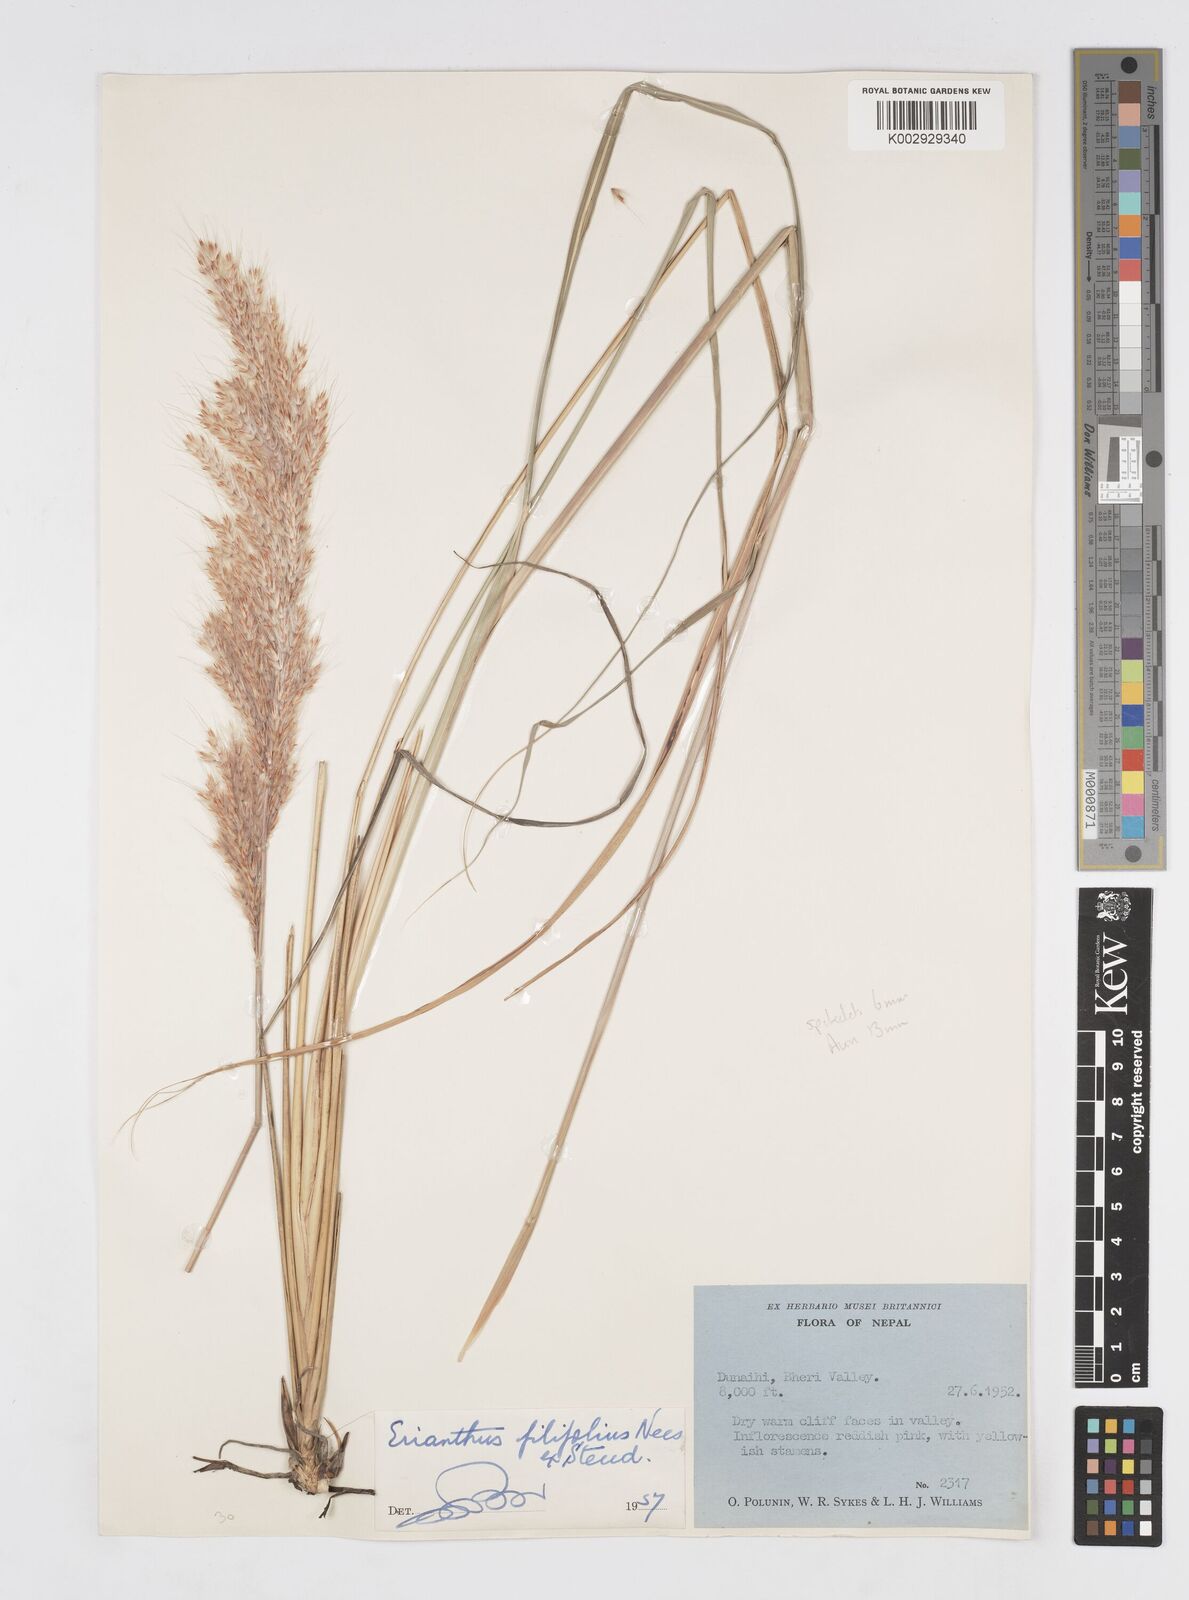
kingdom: Plantae
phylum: Tracheophyta
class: Liliopsida
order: Poales
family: Poaceae
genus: Saccharum
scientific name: Saccharum filifolium
